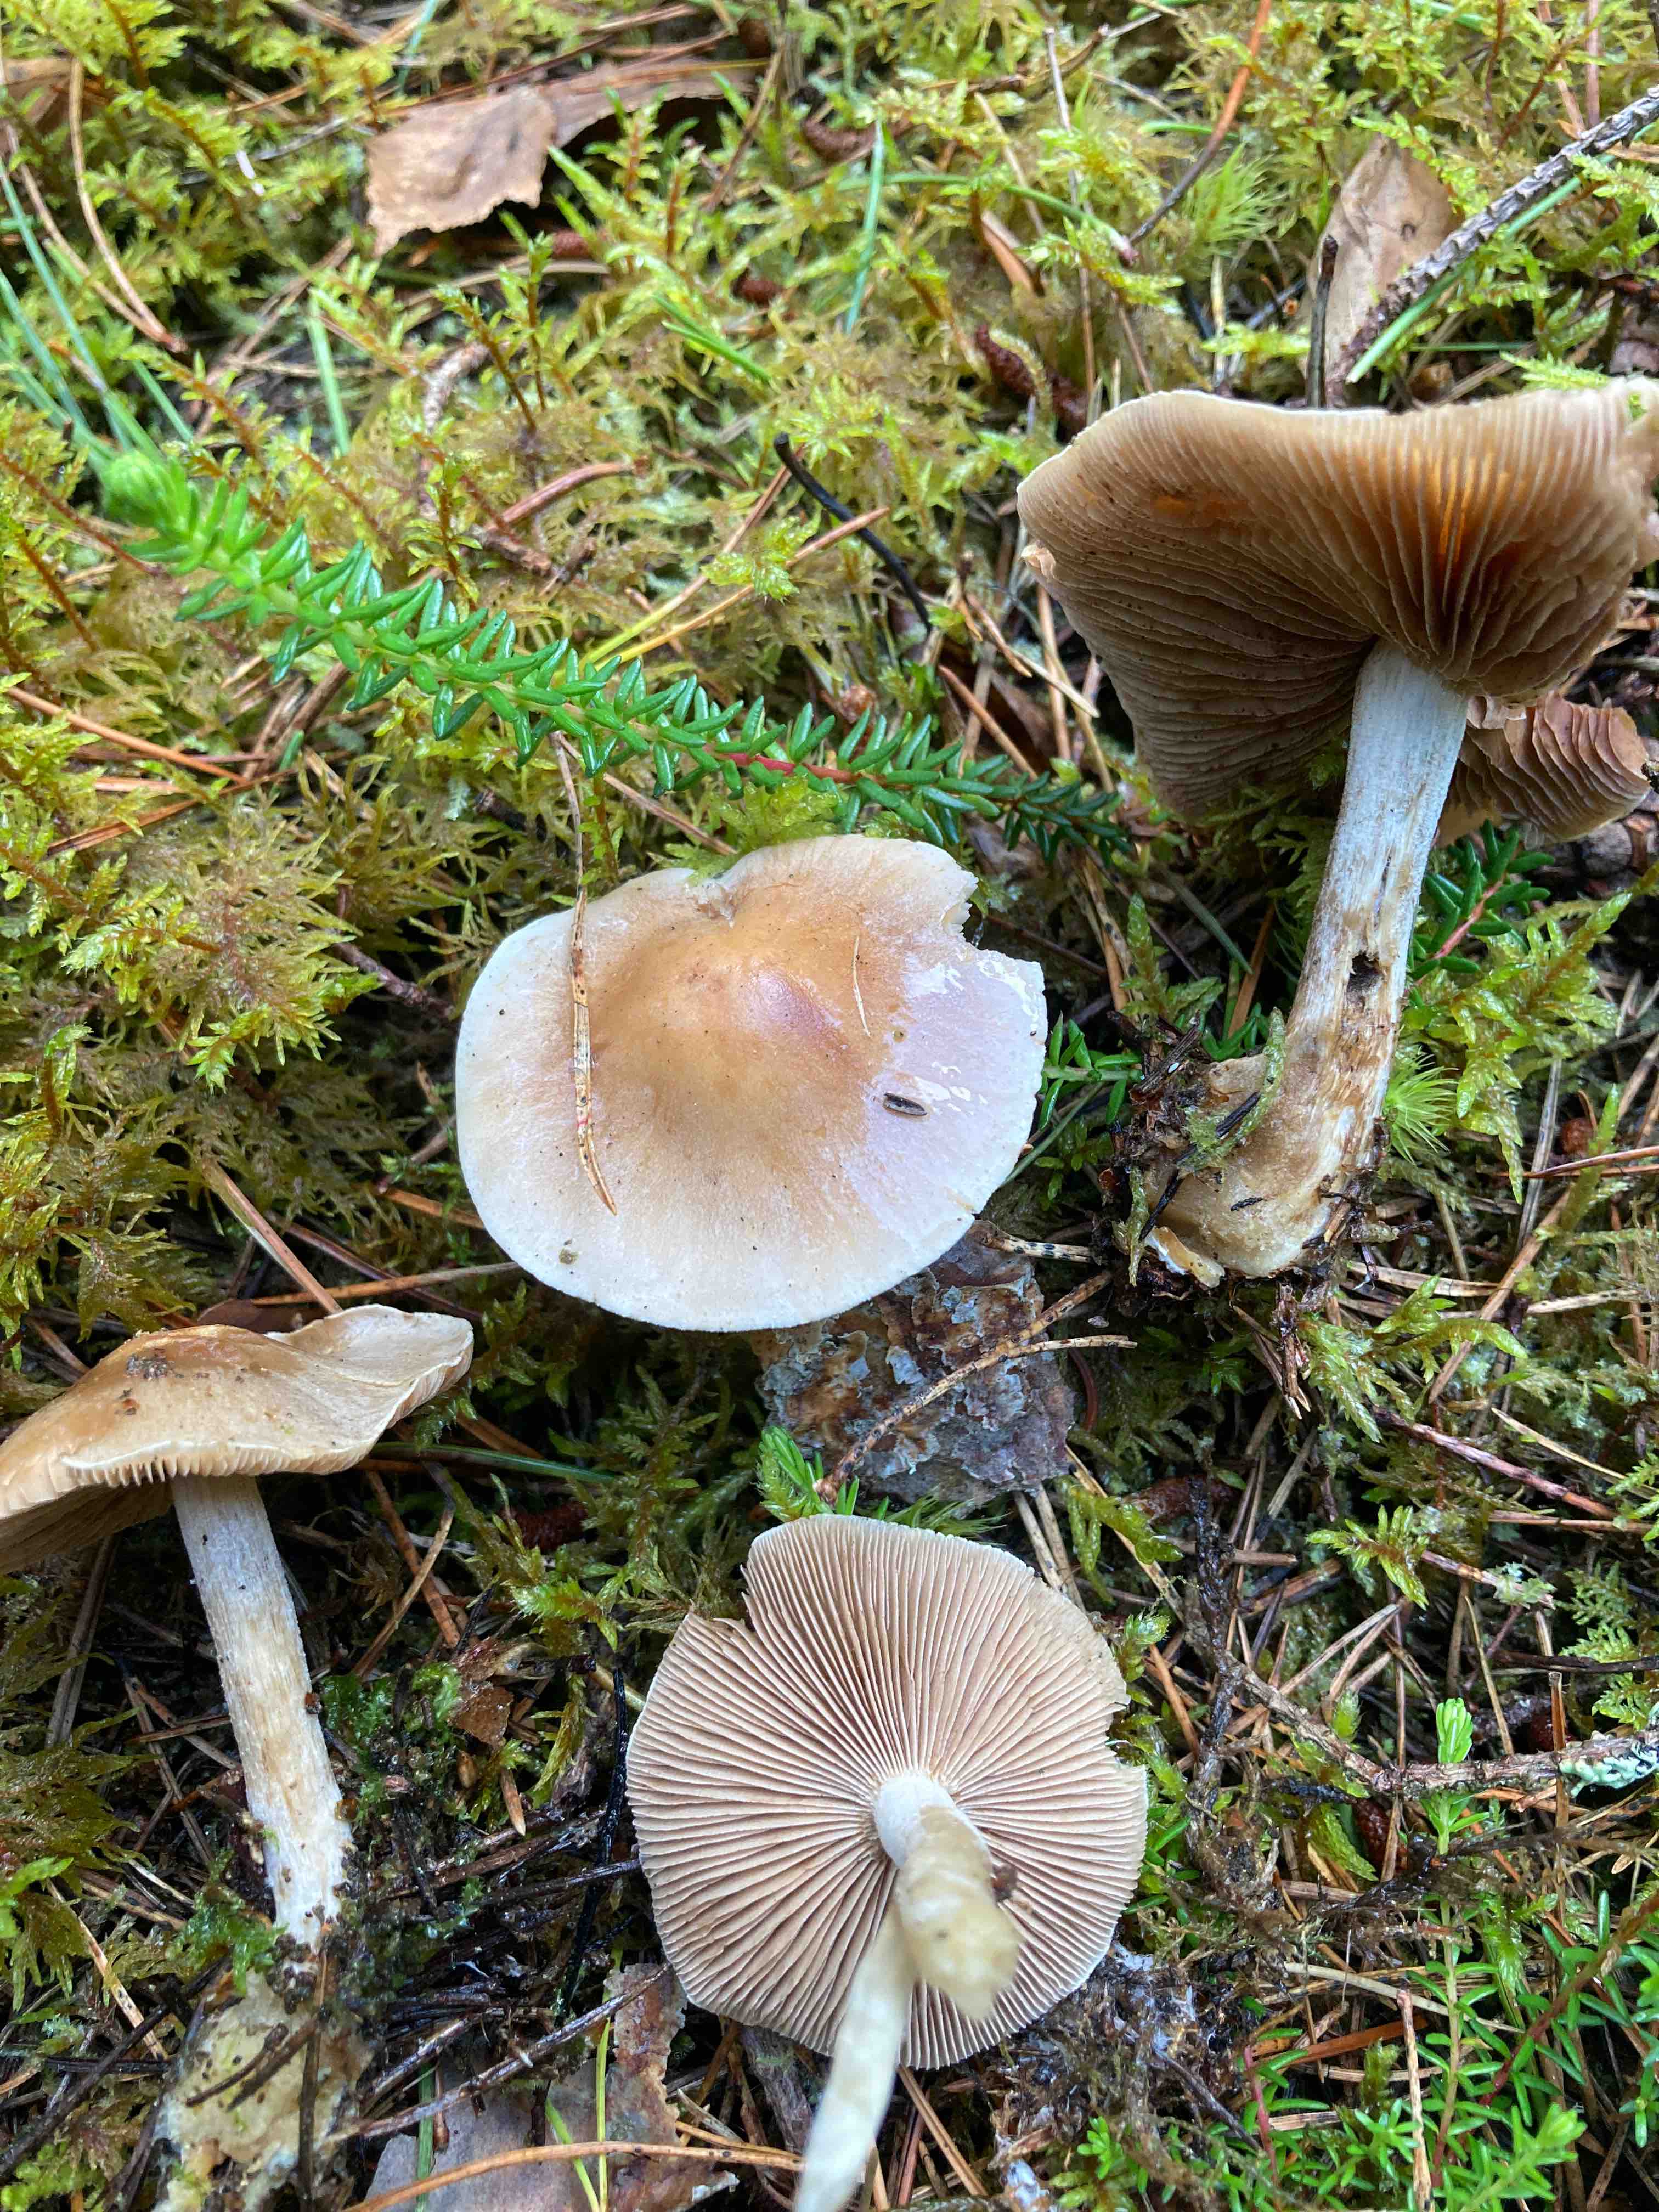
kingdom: Fungi
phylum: Basidiomycota
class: Agaricomycetes
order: Agaricales
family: Hymenogastraceae
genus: Hebeloma
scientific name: Hebeloma leucosarx
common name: højstokket tåreblad
